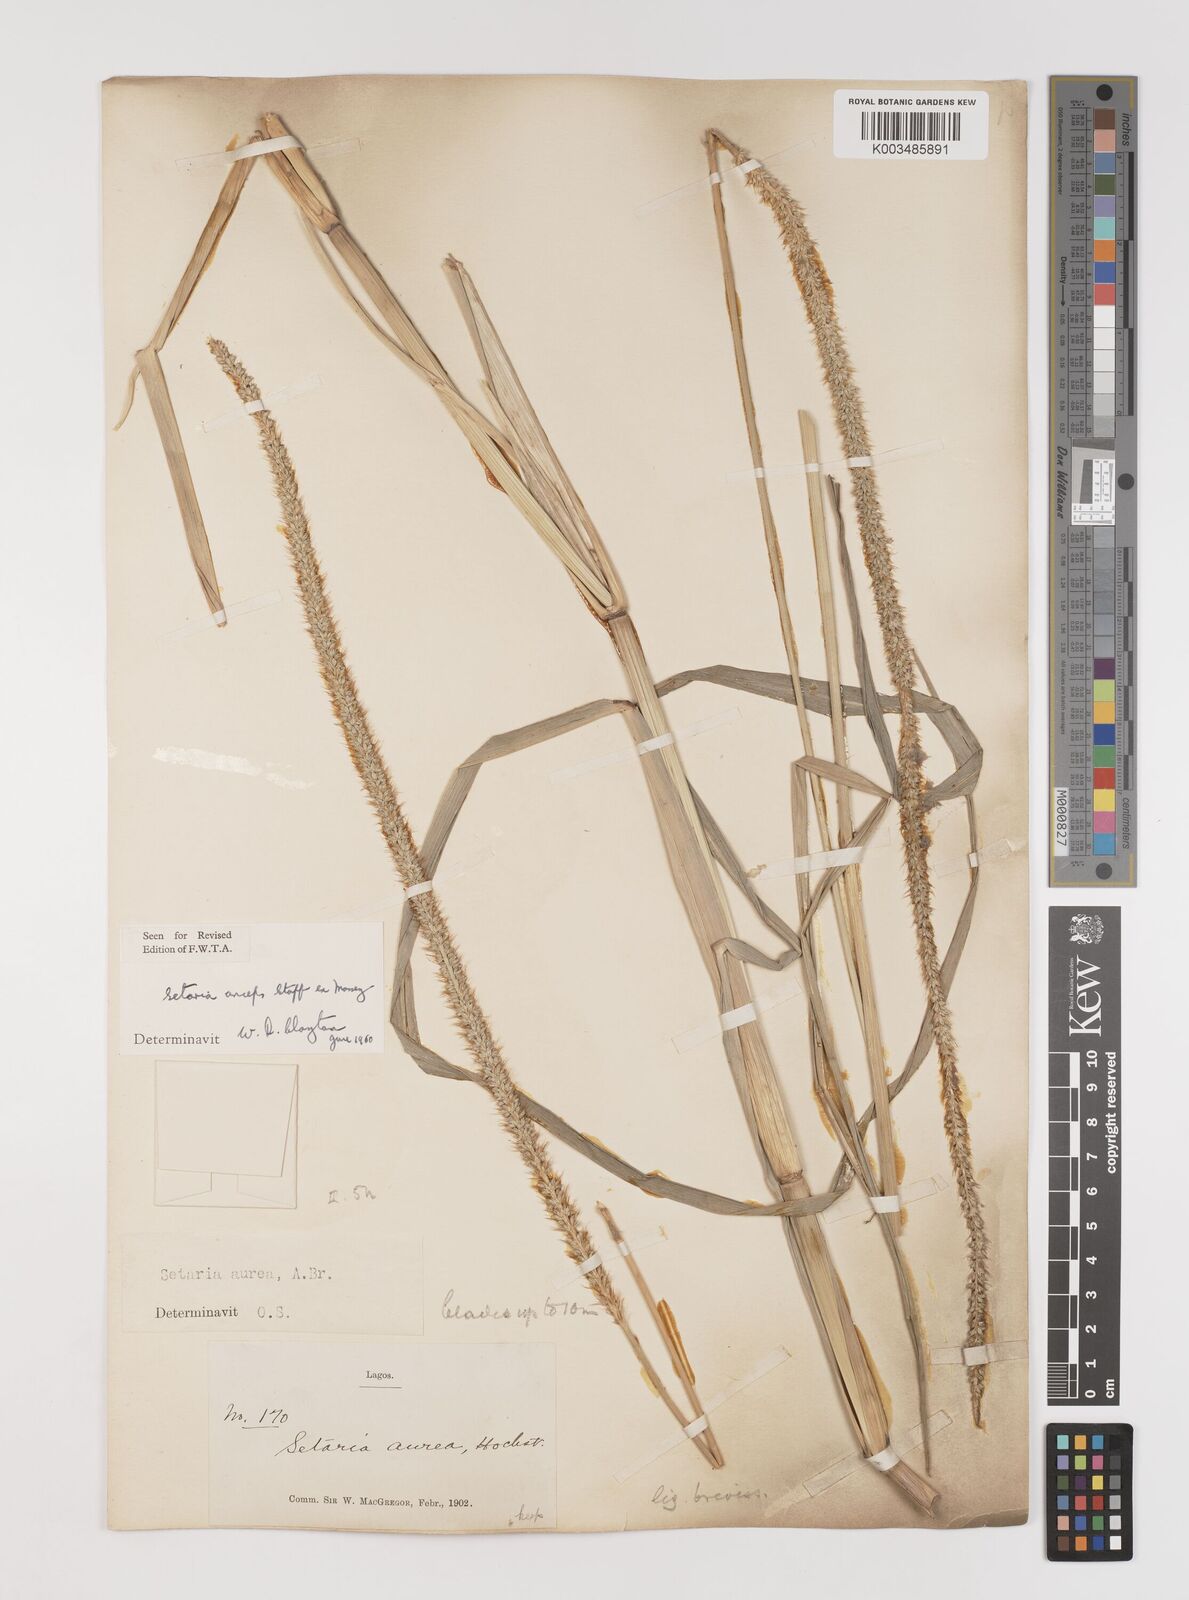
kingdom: Plantae
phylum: Tracheophyta
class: Liliopsida
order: Poales
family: Poaceae
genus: Setaria
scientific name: Setaria sphacelata
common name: African bristlegrass
